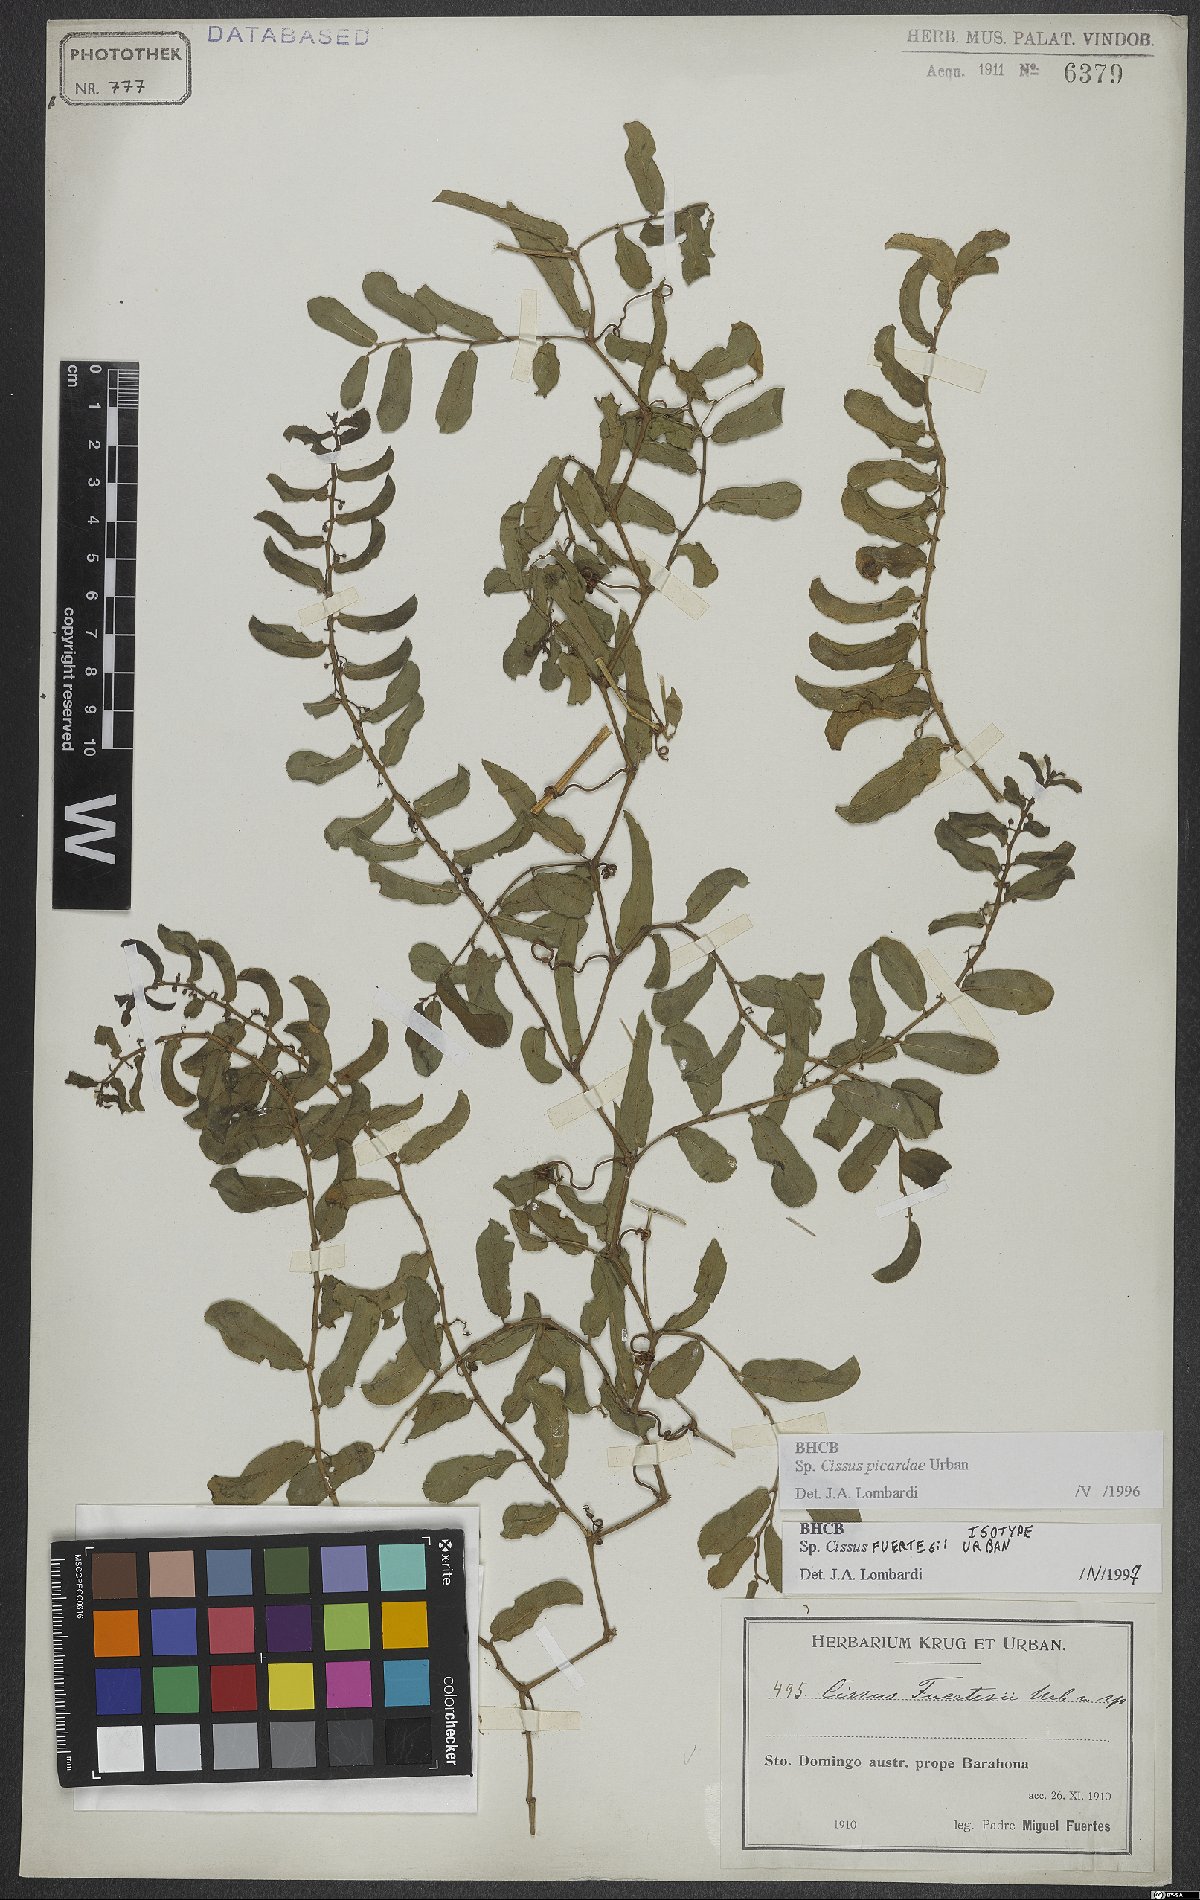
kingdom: Plantae
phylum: Tracheophyta
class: Magnoliopsida
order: Vitales
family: Vitaceae
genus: Cissus
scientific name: Cissus picardae
